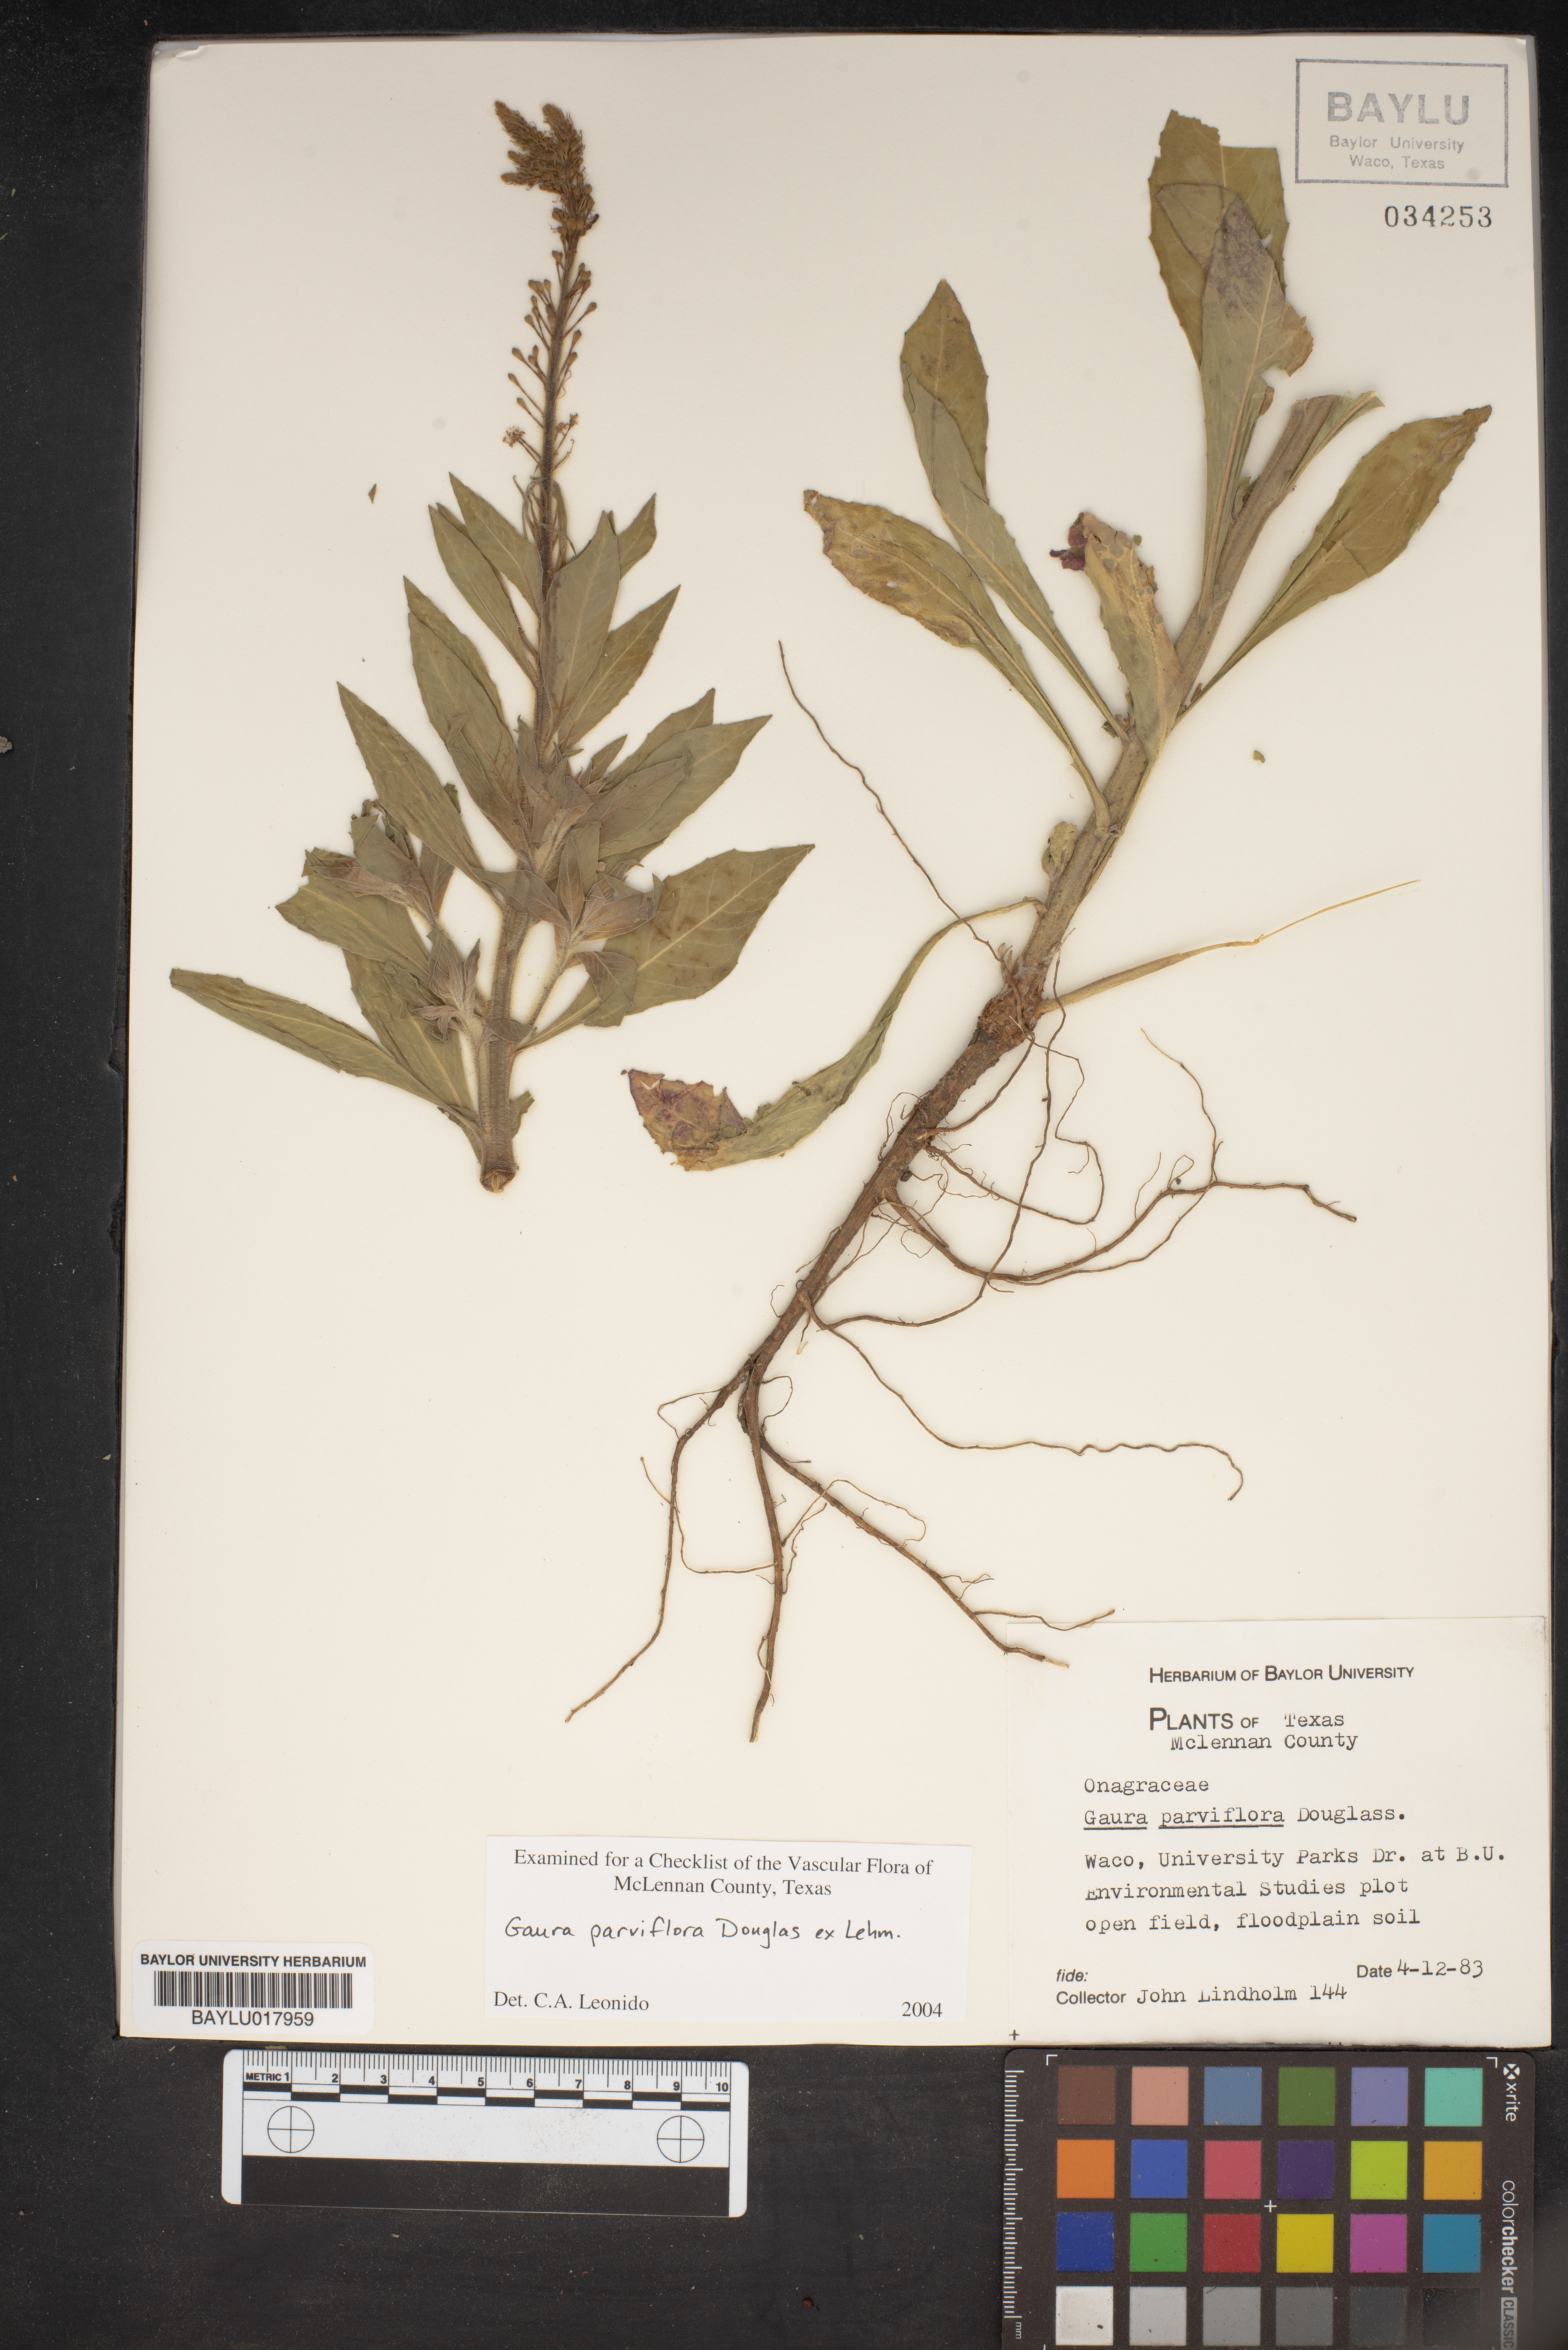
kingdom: Plantae
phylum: Tracheophyta
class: Magnoliopsida
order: Myrtales
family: Onagraceae
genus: Oenothera
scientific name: Oenothera curtiflora
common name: Velvetweed
